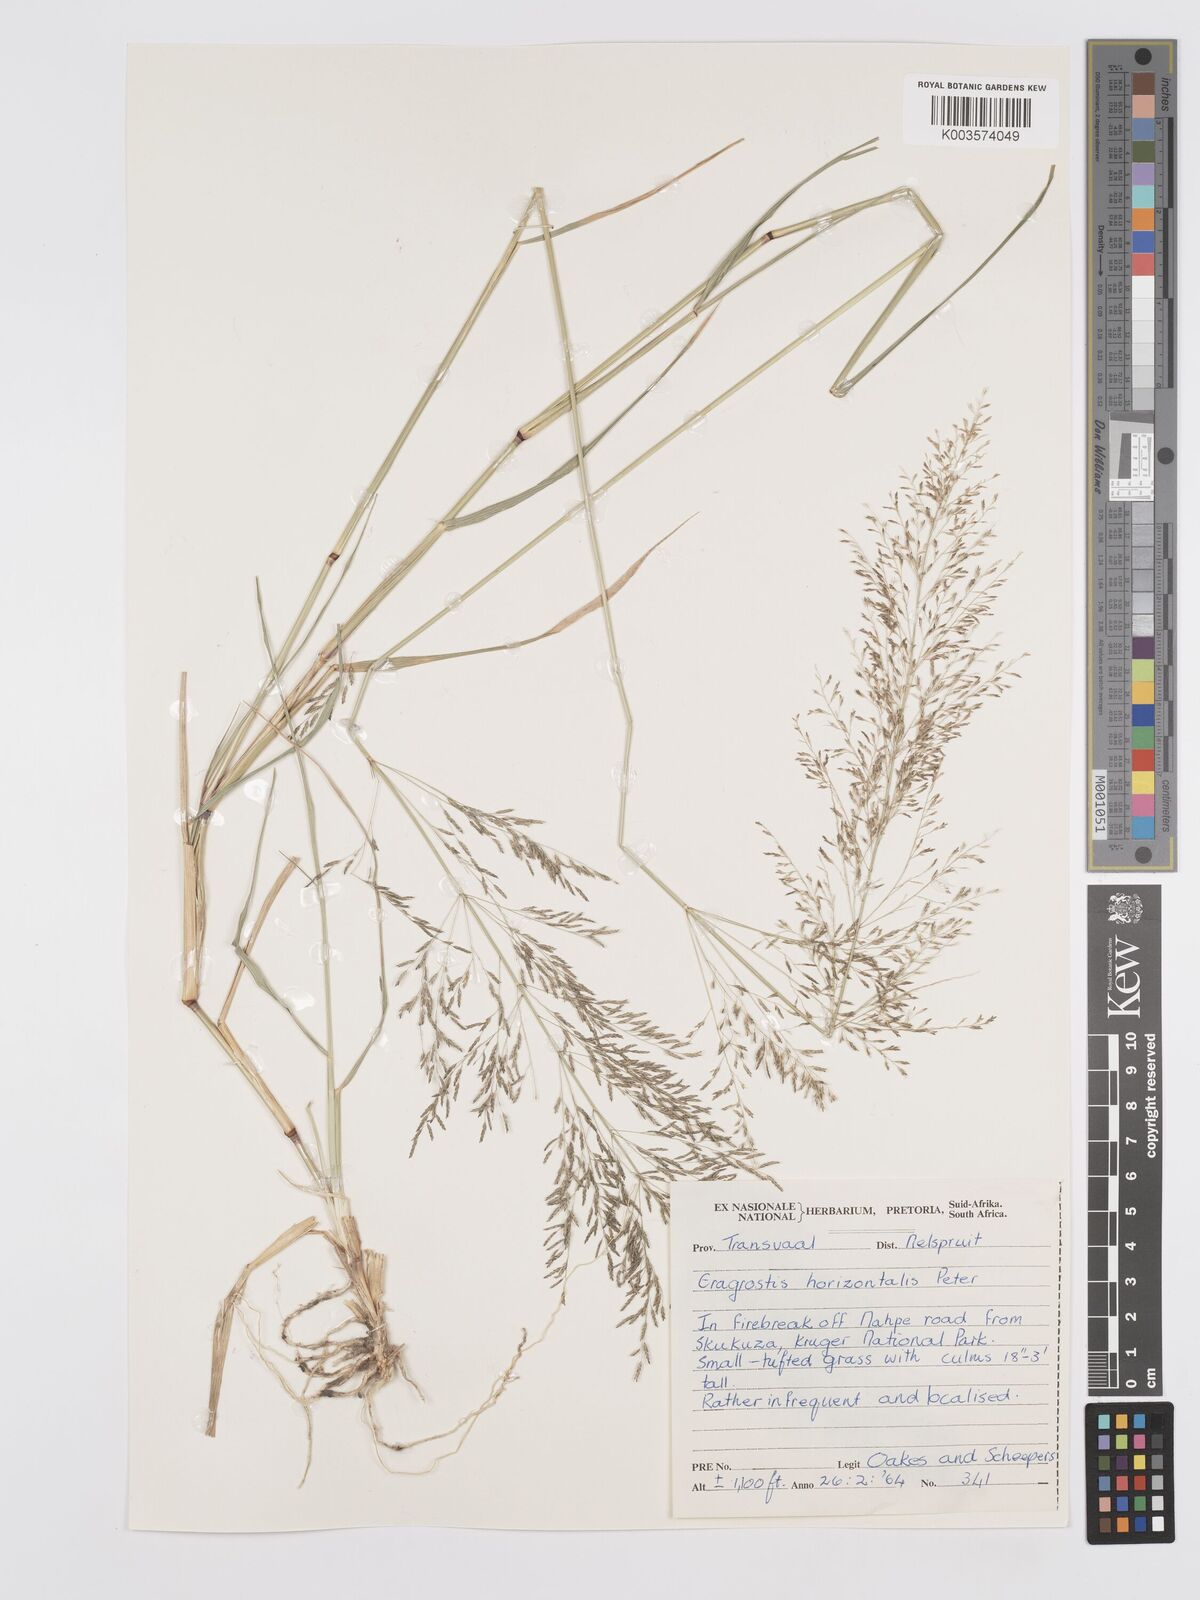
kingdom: Plantae
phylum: Tracheophyta
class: Liliopsida
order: Poales
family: Poaceae
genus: Eragrostis
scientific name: Eragrostis cylindriflora
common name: Cylinderflower lovegrass
